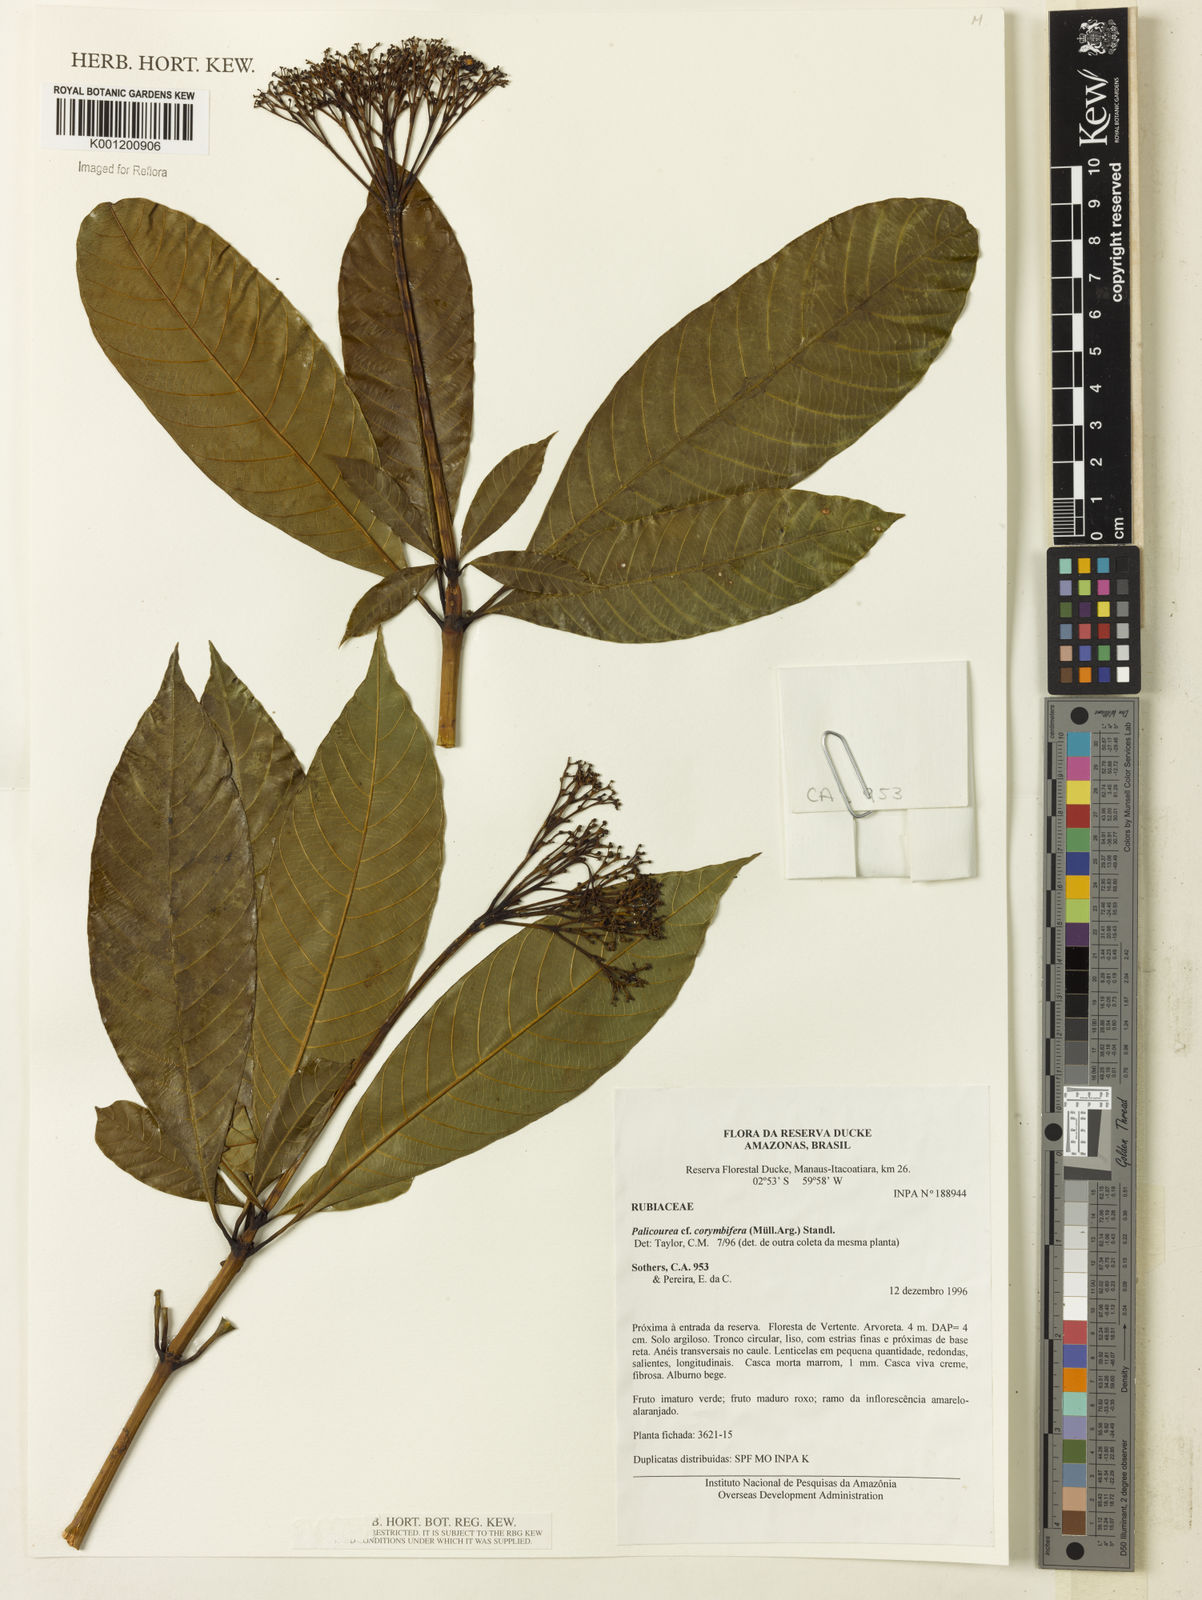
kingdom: Plantae
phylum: Tracheophyta
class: Magnoliopsida
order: Gentianales
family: Rubiaceae
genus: Palicourea
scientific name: Palicourea
